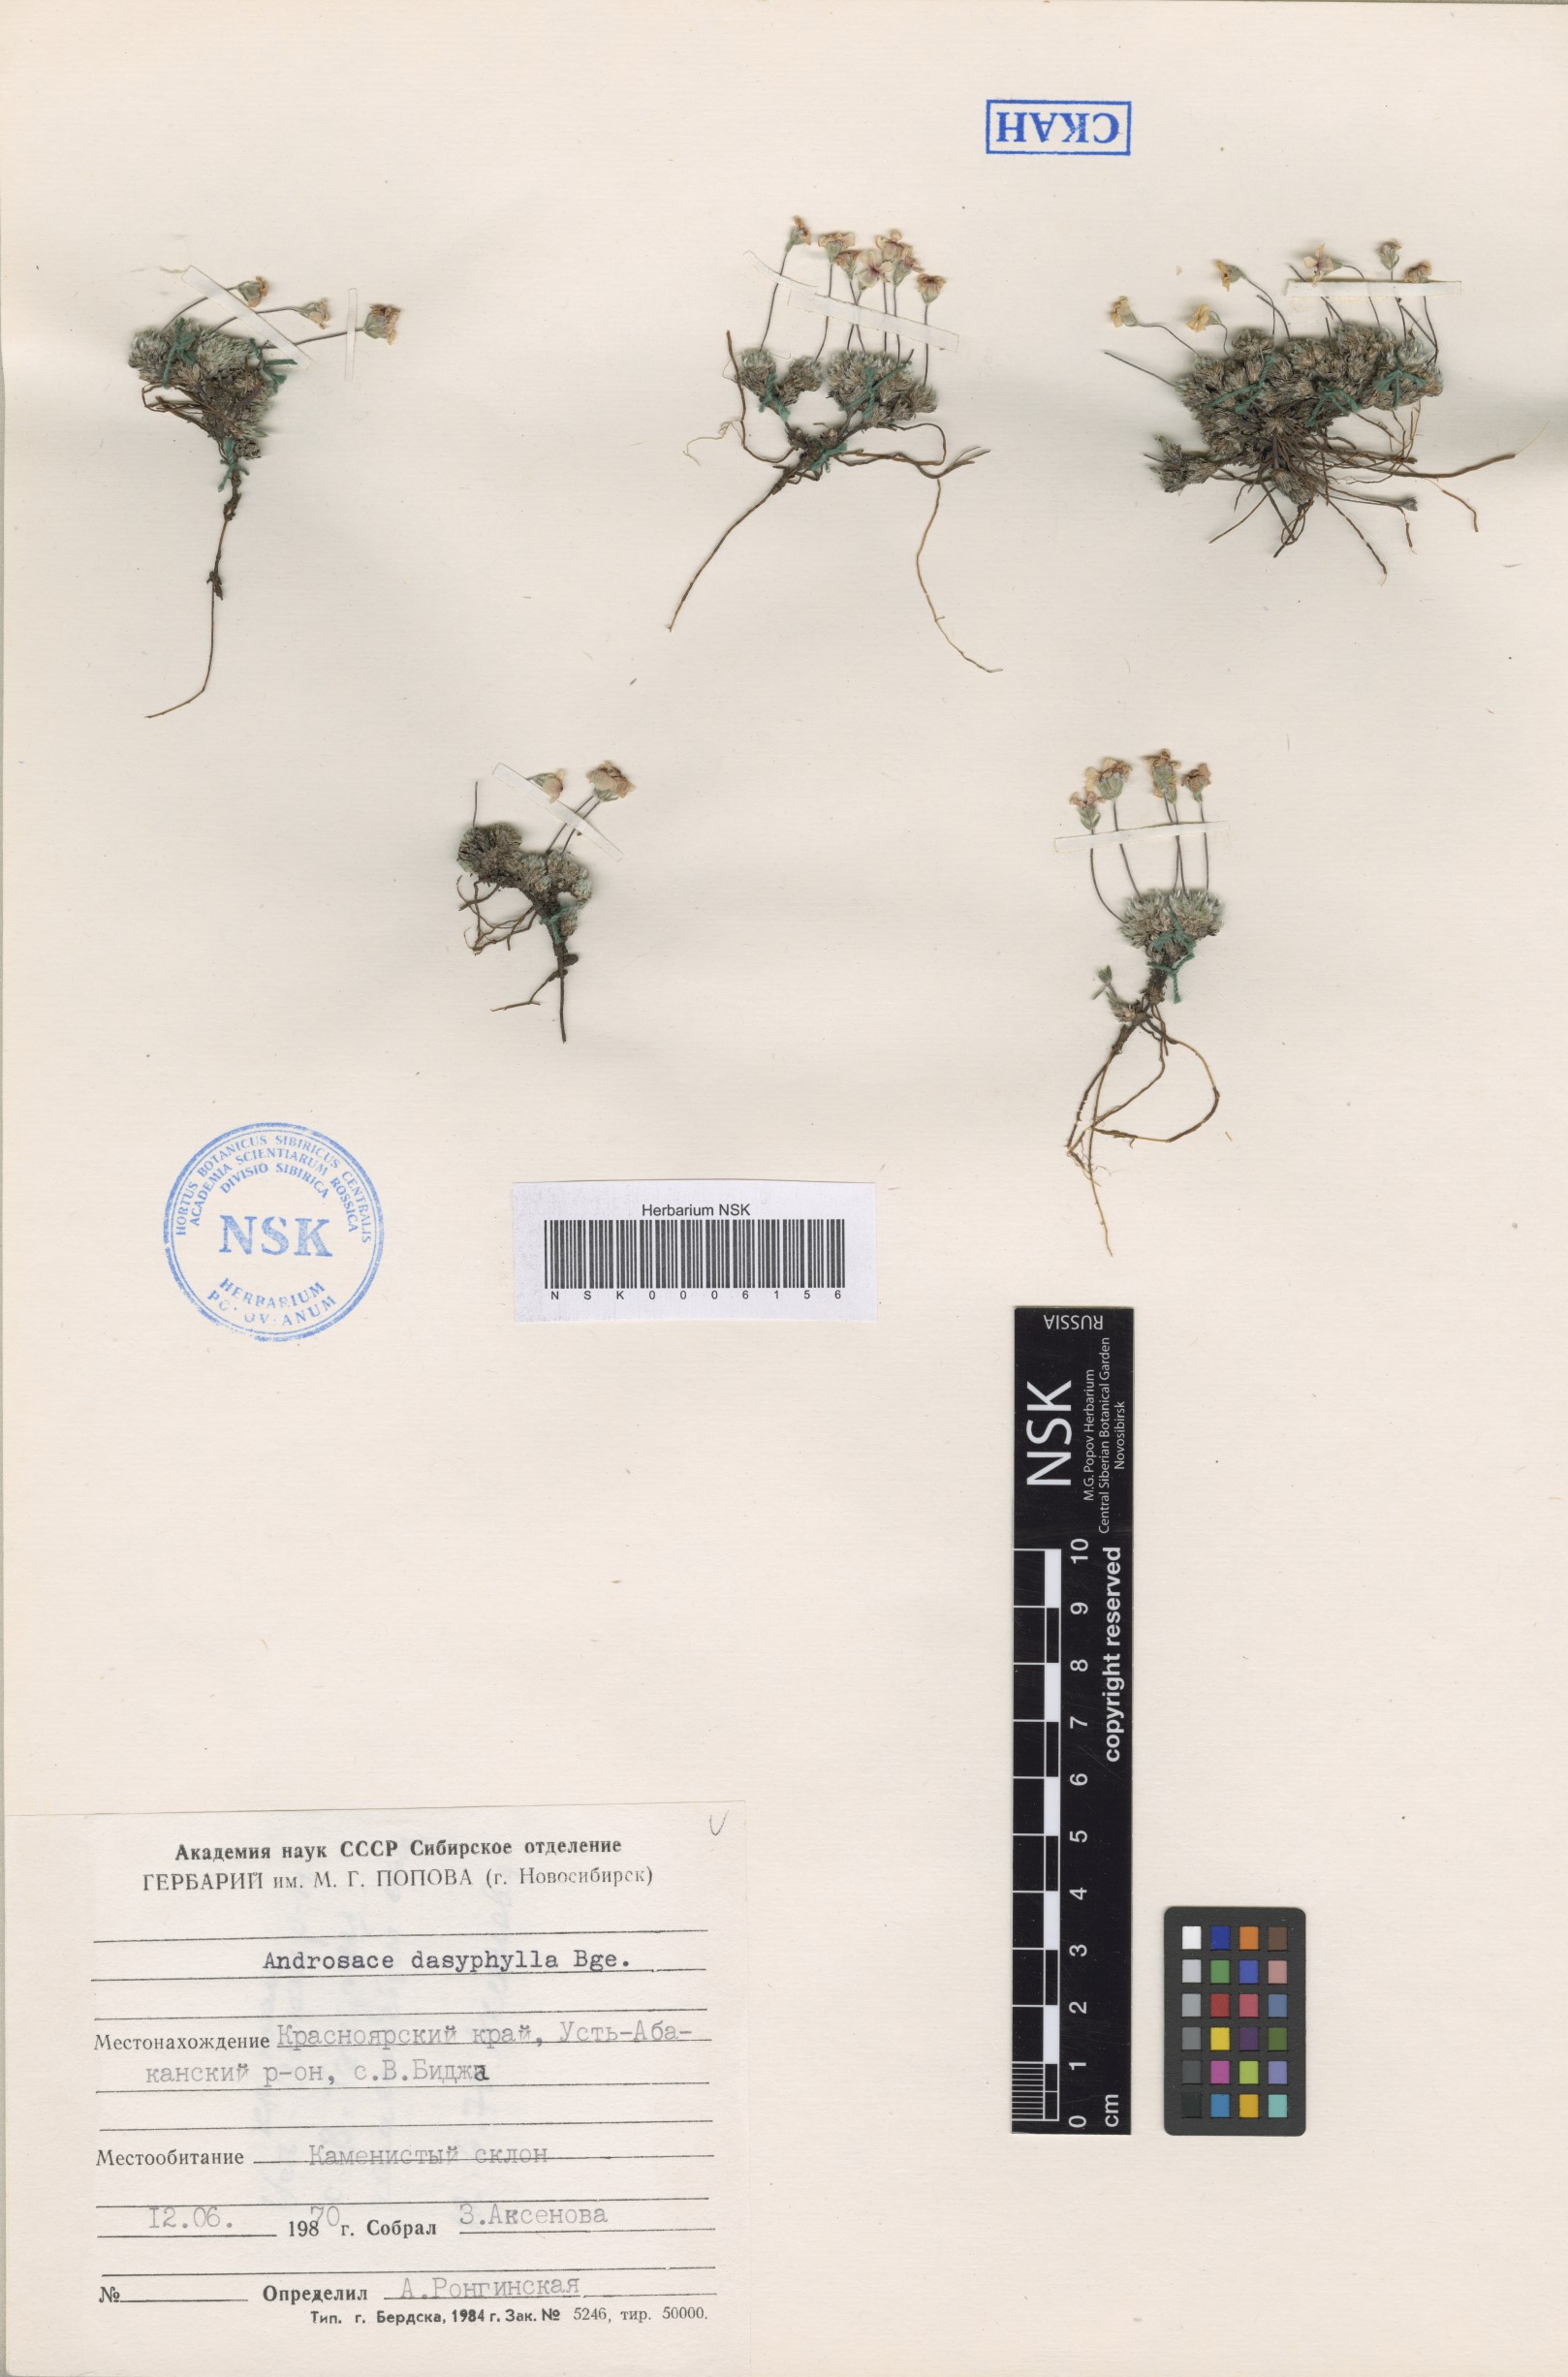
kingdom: Plantae
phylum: Tracheophyta
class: Magnoliopsida
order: Ericales
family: Primulaceae
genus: Androsace
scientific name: Androsace dasyphylla
